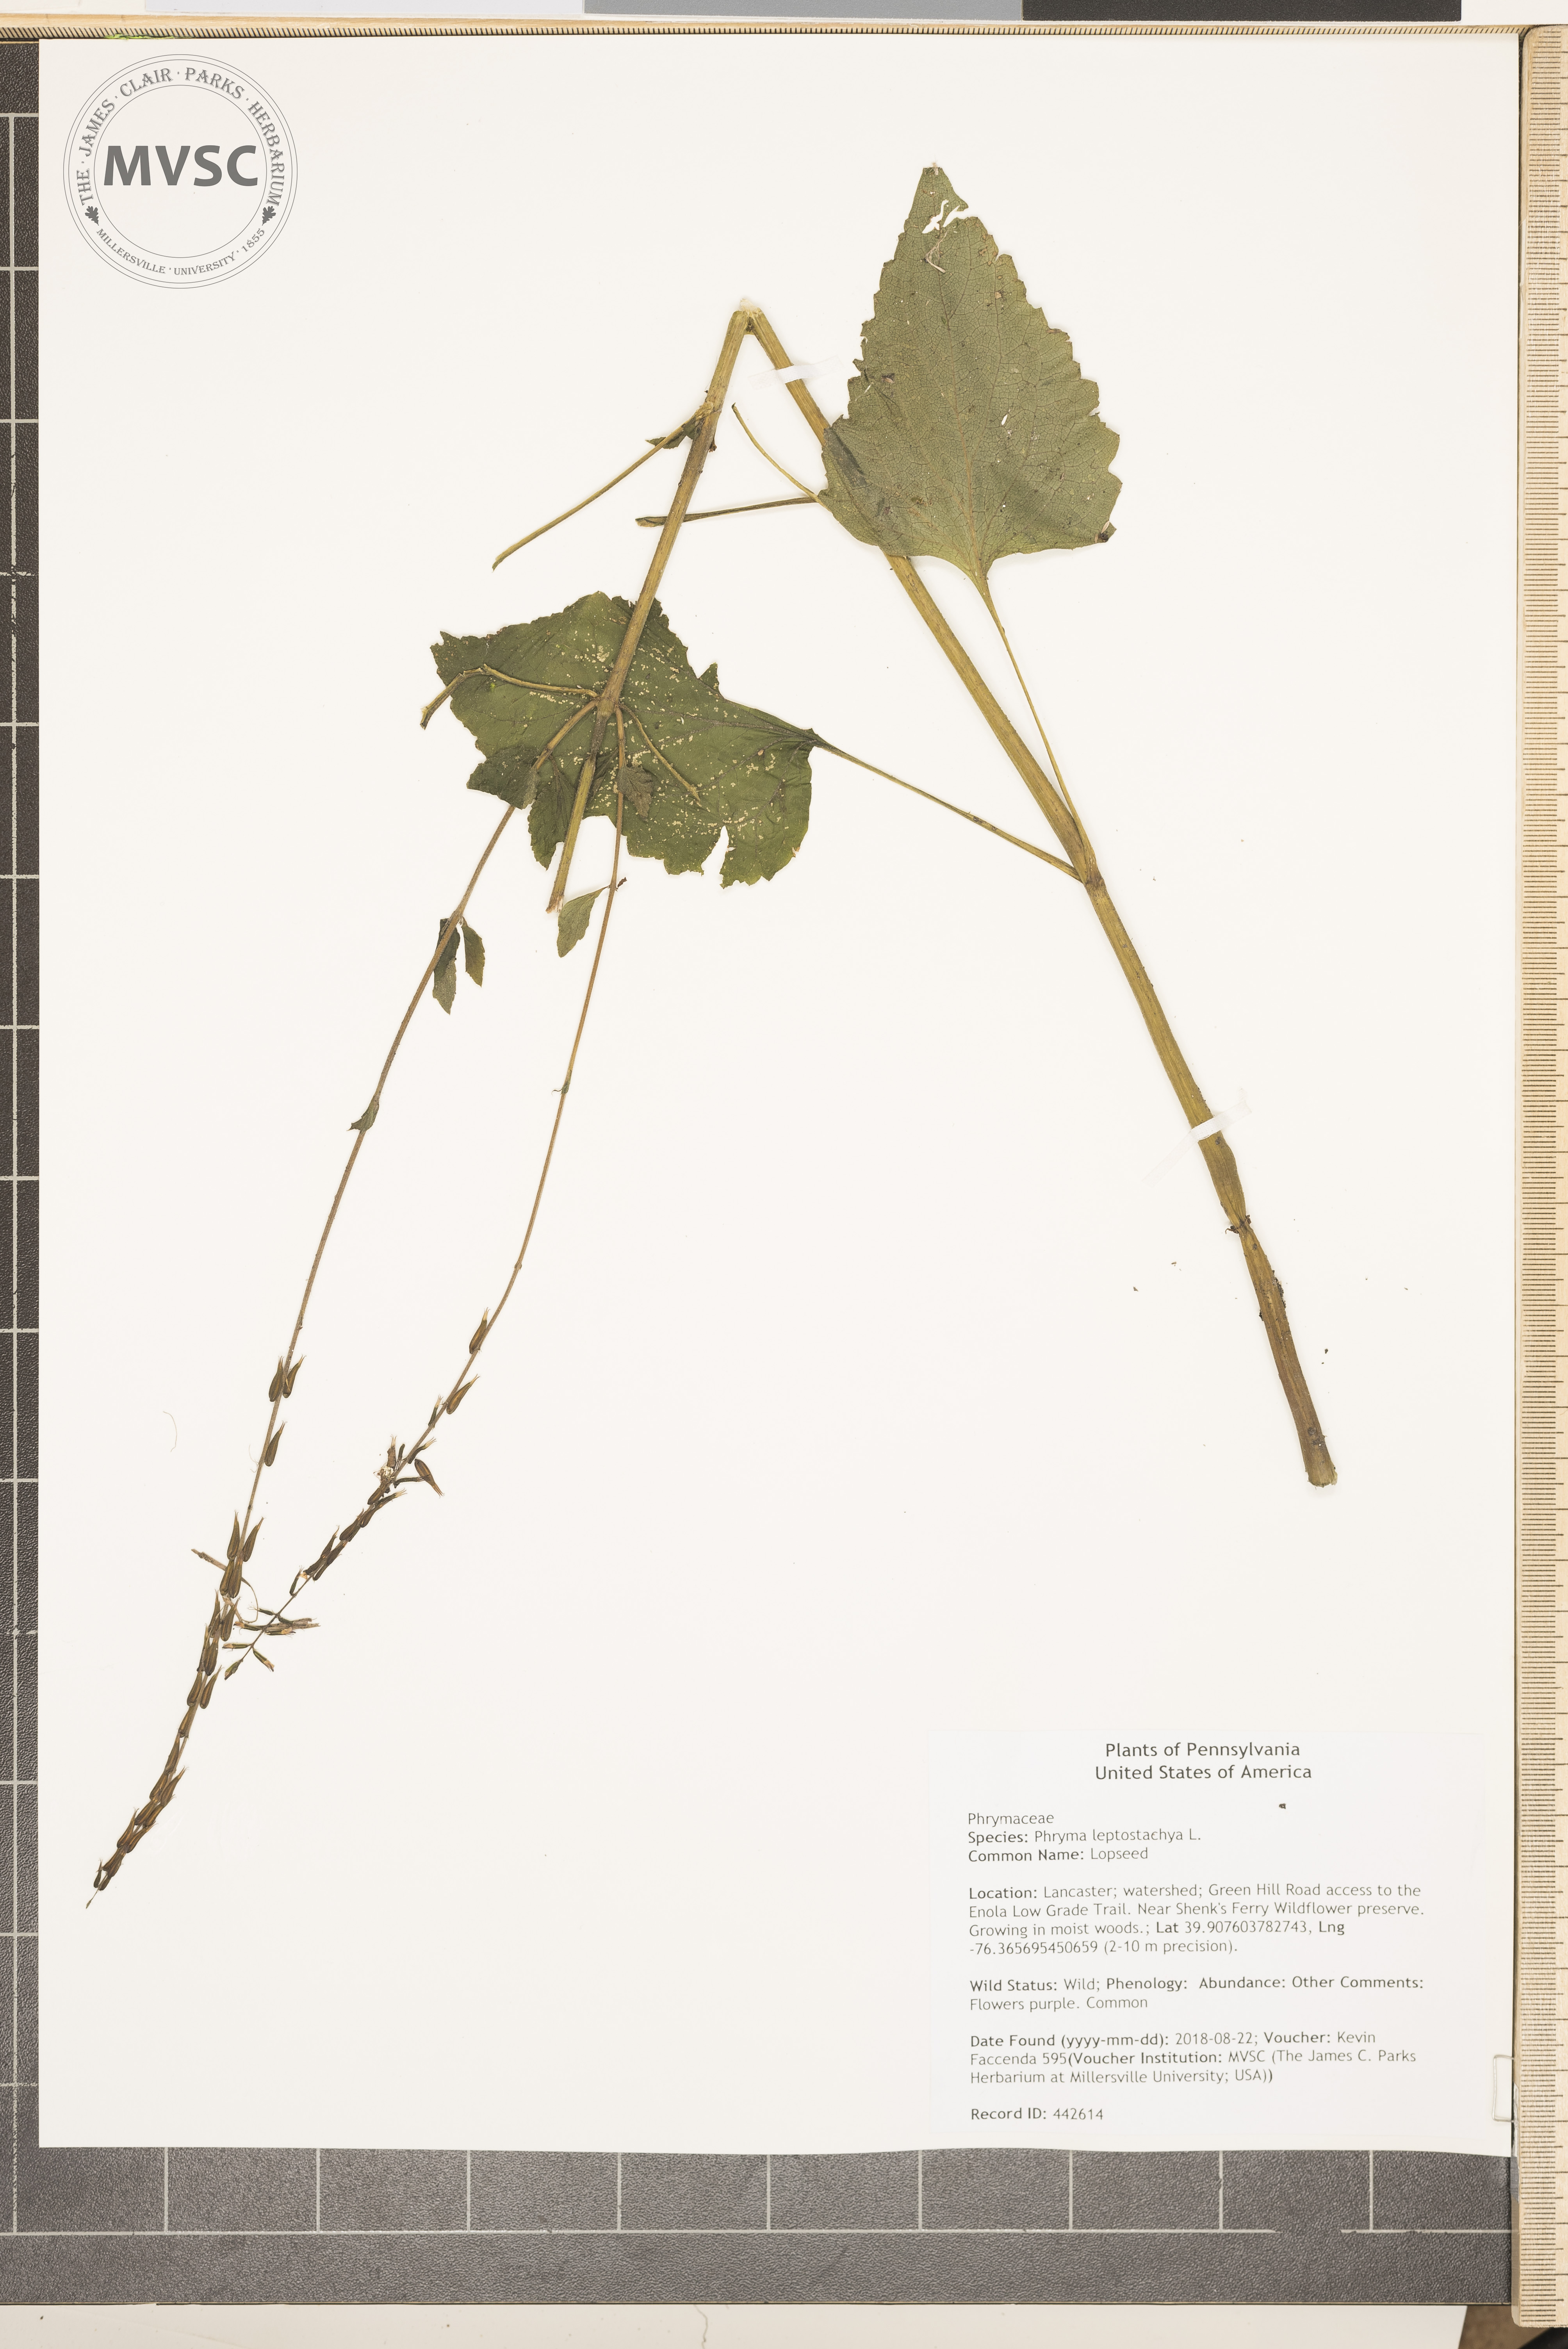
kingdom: Plantae
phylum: Tracheophyta
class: Magnoliopsida
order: Lamiales
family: Phrymaceae
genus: Phryma
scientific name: Phryma leptostachya
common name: Lopseed
